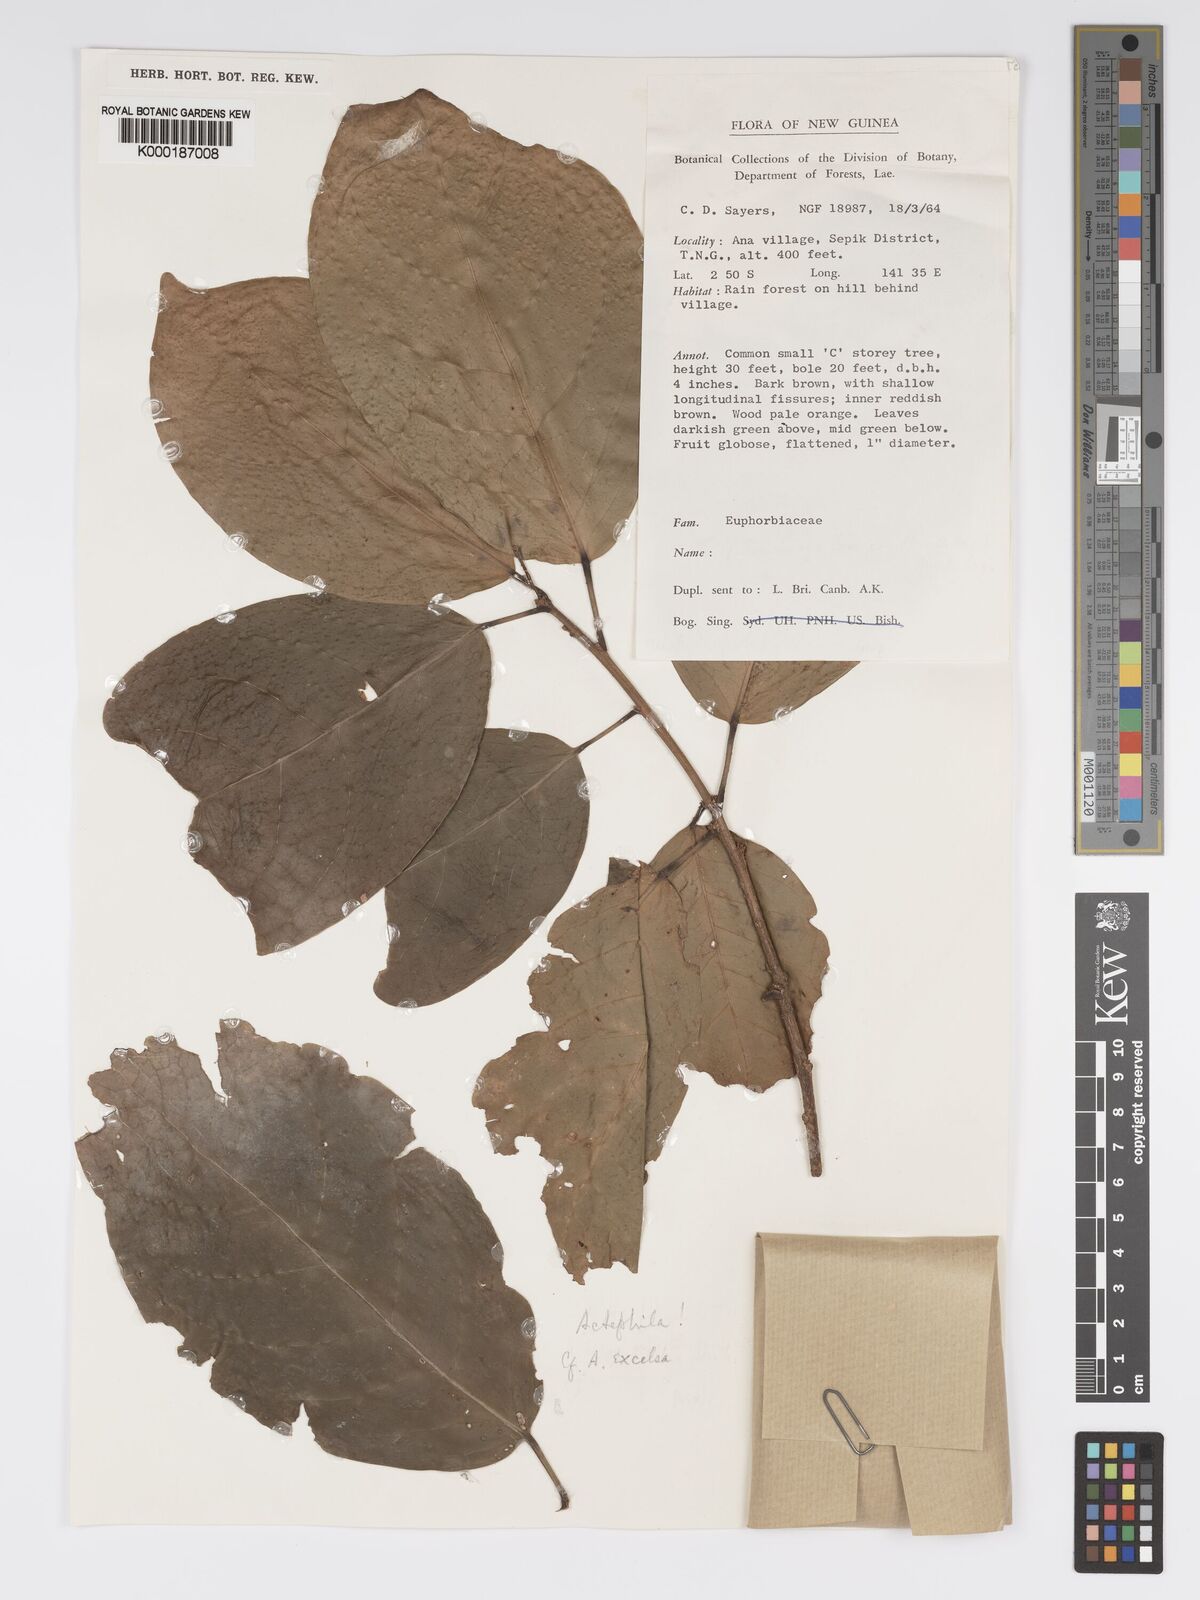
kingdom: Plantae
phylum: Tracheophyta
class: Magnoliopsida
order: Malpighiales
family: Phyllanthaceae
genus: Actephila
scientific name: Actephila
